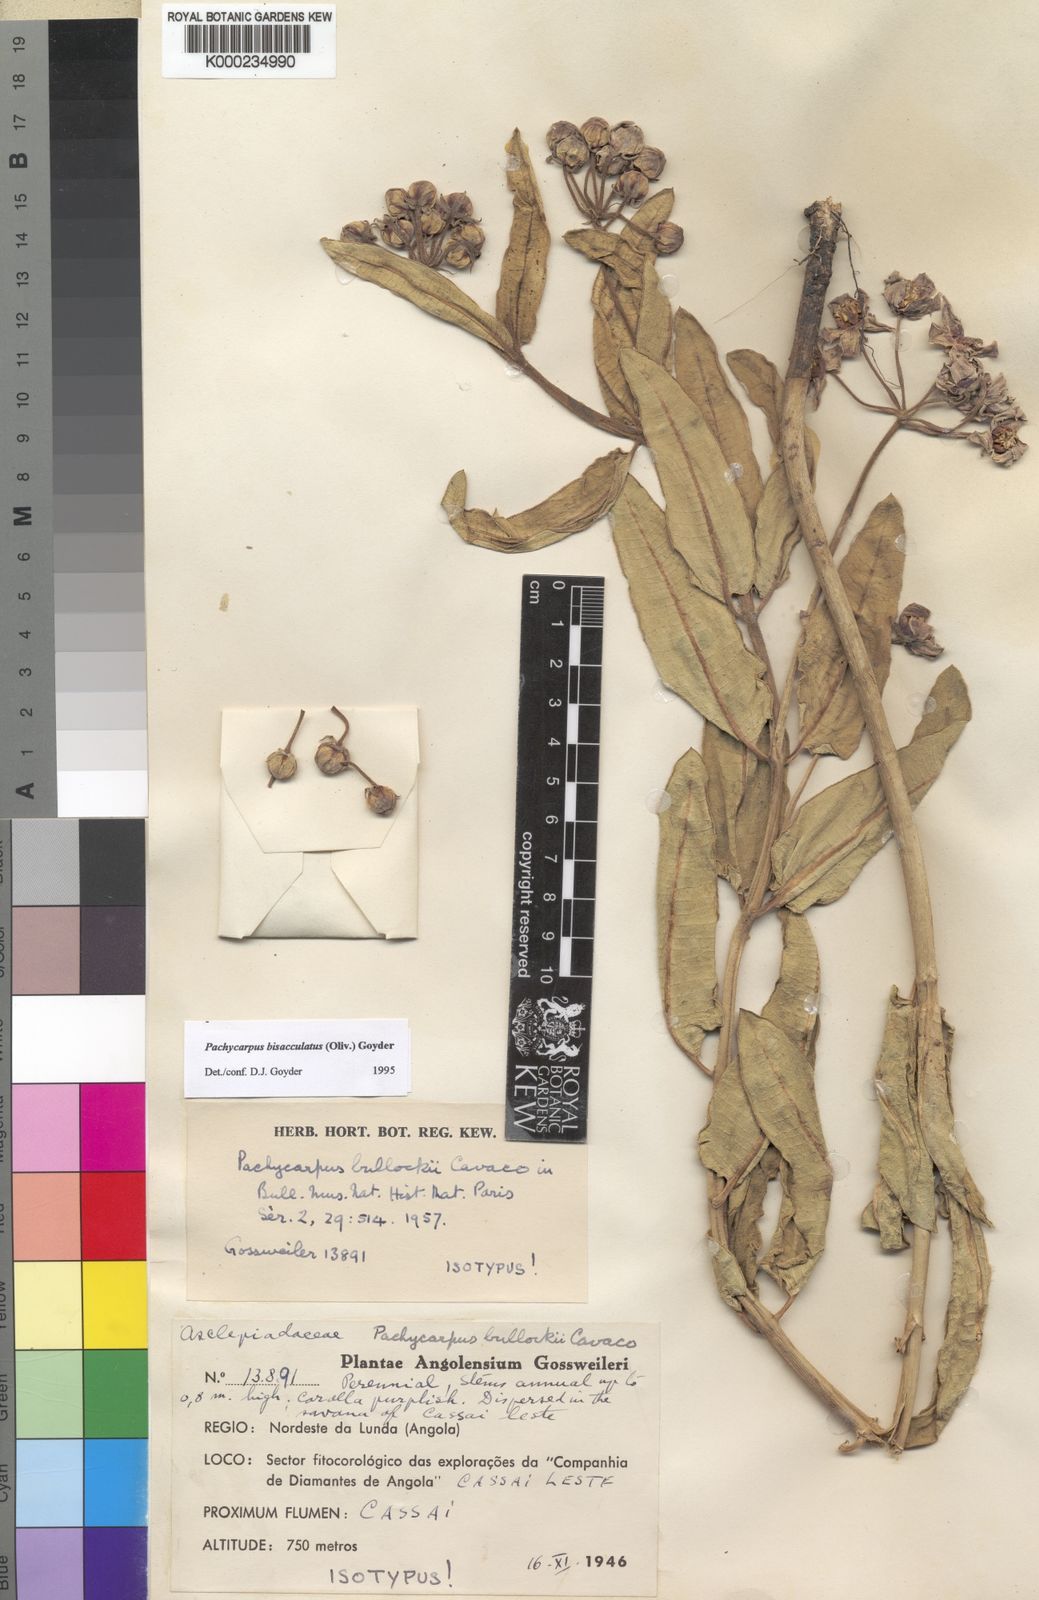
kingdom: Plantae
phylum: Tracheophyta
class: Magnoliopsida
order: Gentianales
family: Apocynaceae
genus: Pachycarpus
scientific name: Pachycarpus bisacculatus
